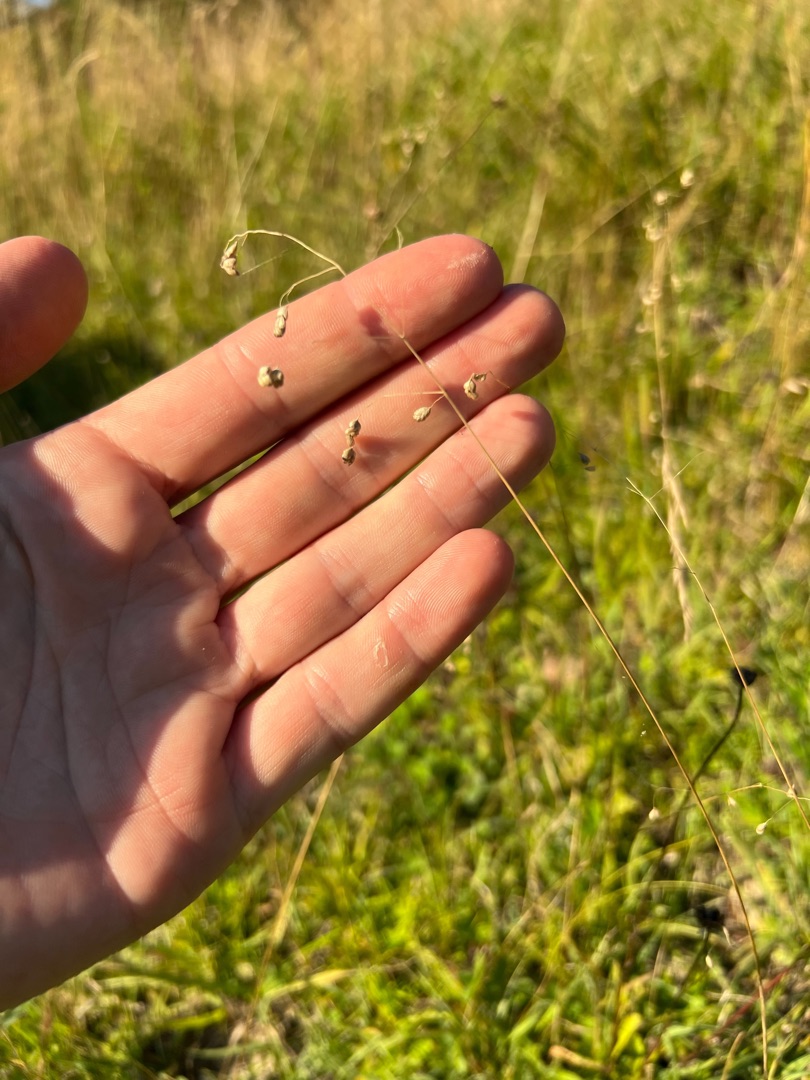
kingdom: Plantae
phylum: Tracheophyta
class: Liliopsida
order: Poales
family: Poaceae
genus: Briza
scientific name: Briza media
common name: Hjertegræs
